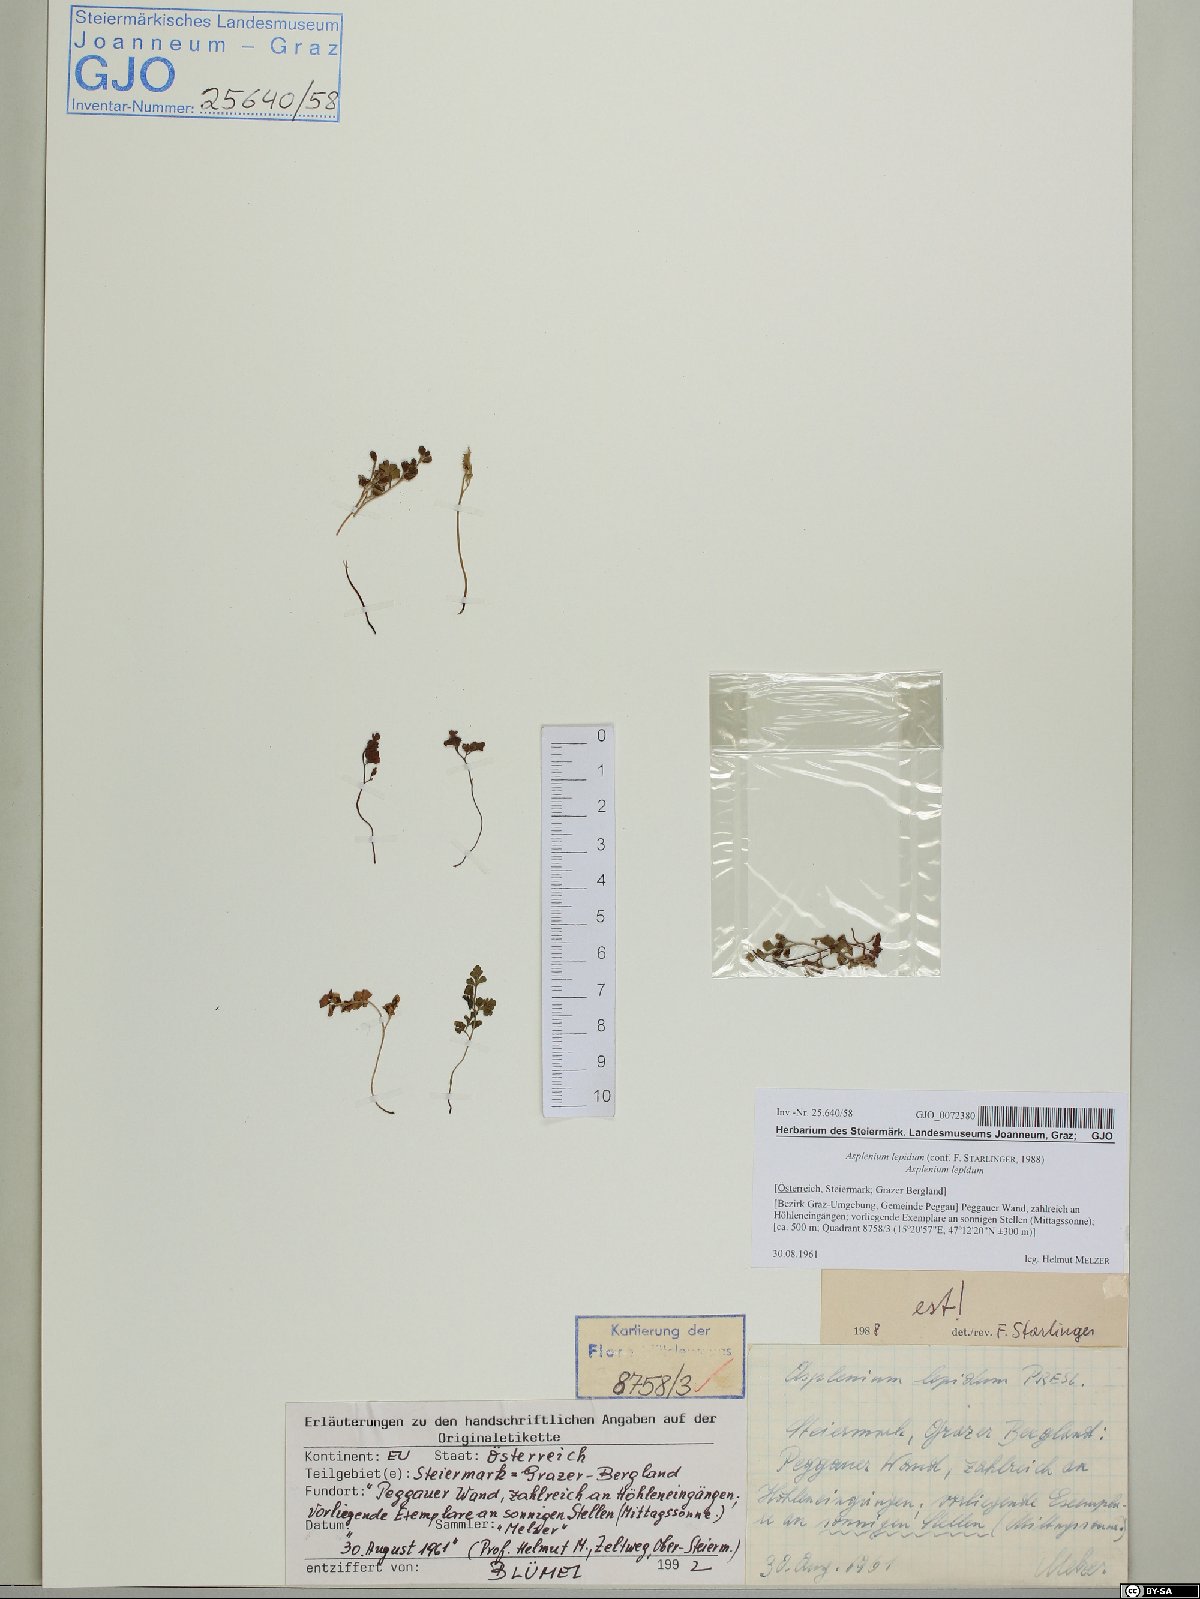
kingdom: Plantae
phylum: Tracheophyta
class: Polypodiopsida
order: Polypodiales
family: Aspleniaceae
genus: Asplenium
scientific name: Asplenium lepidum
